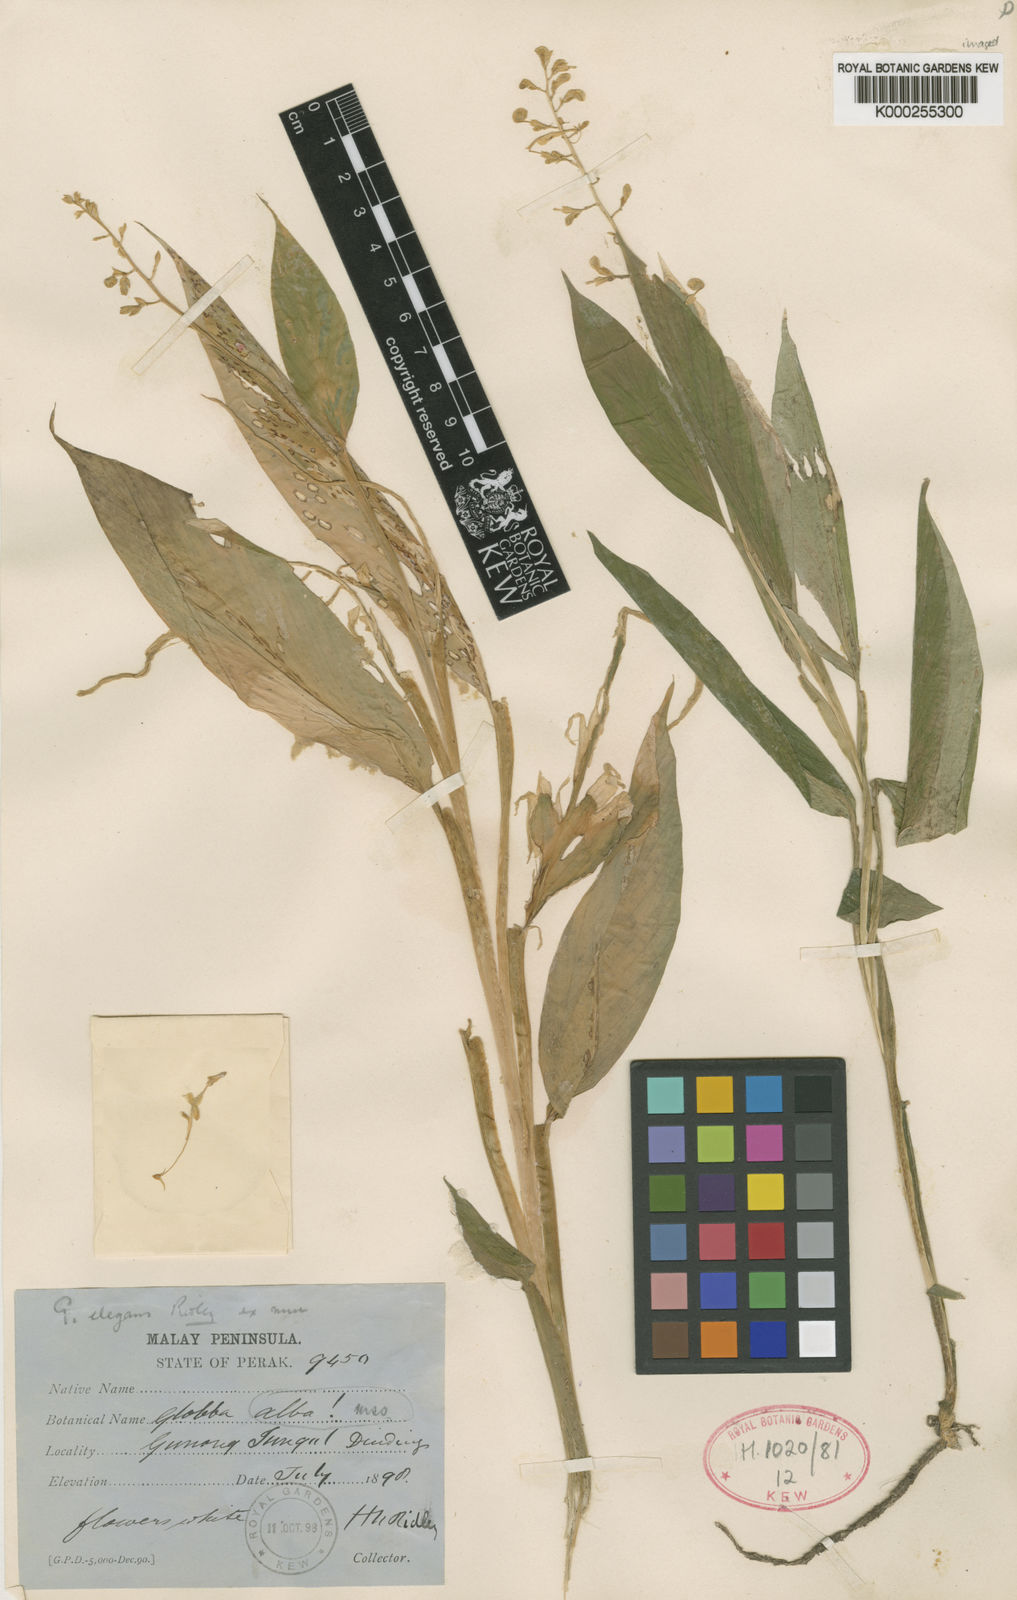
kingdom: Plantae
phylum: Tracheophyta
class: Liliopsida
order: Zingiberales
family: Zingiberaceae
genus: Globba
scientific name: Globba pendula
